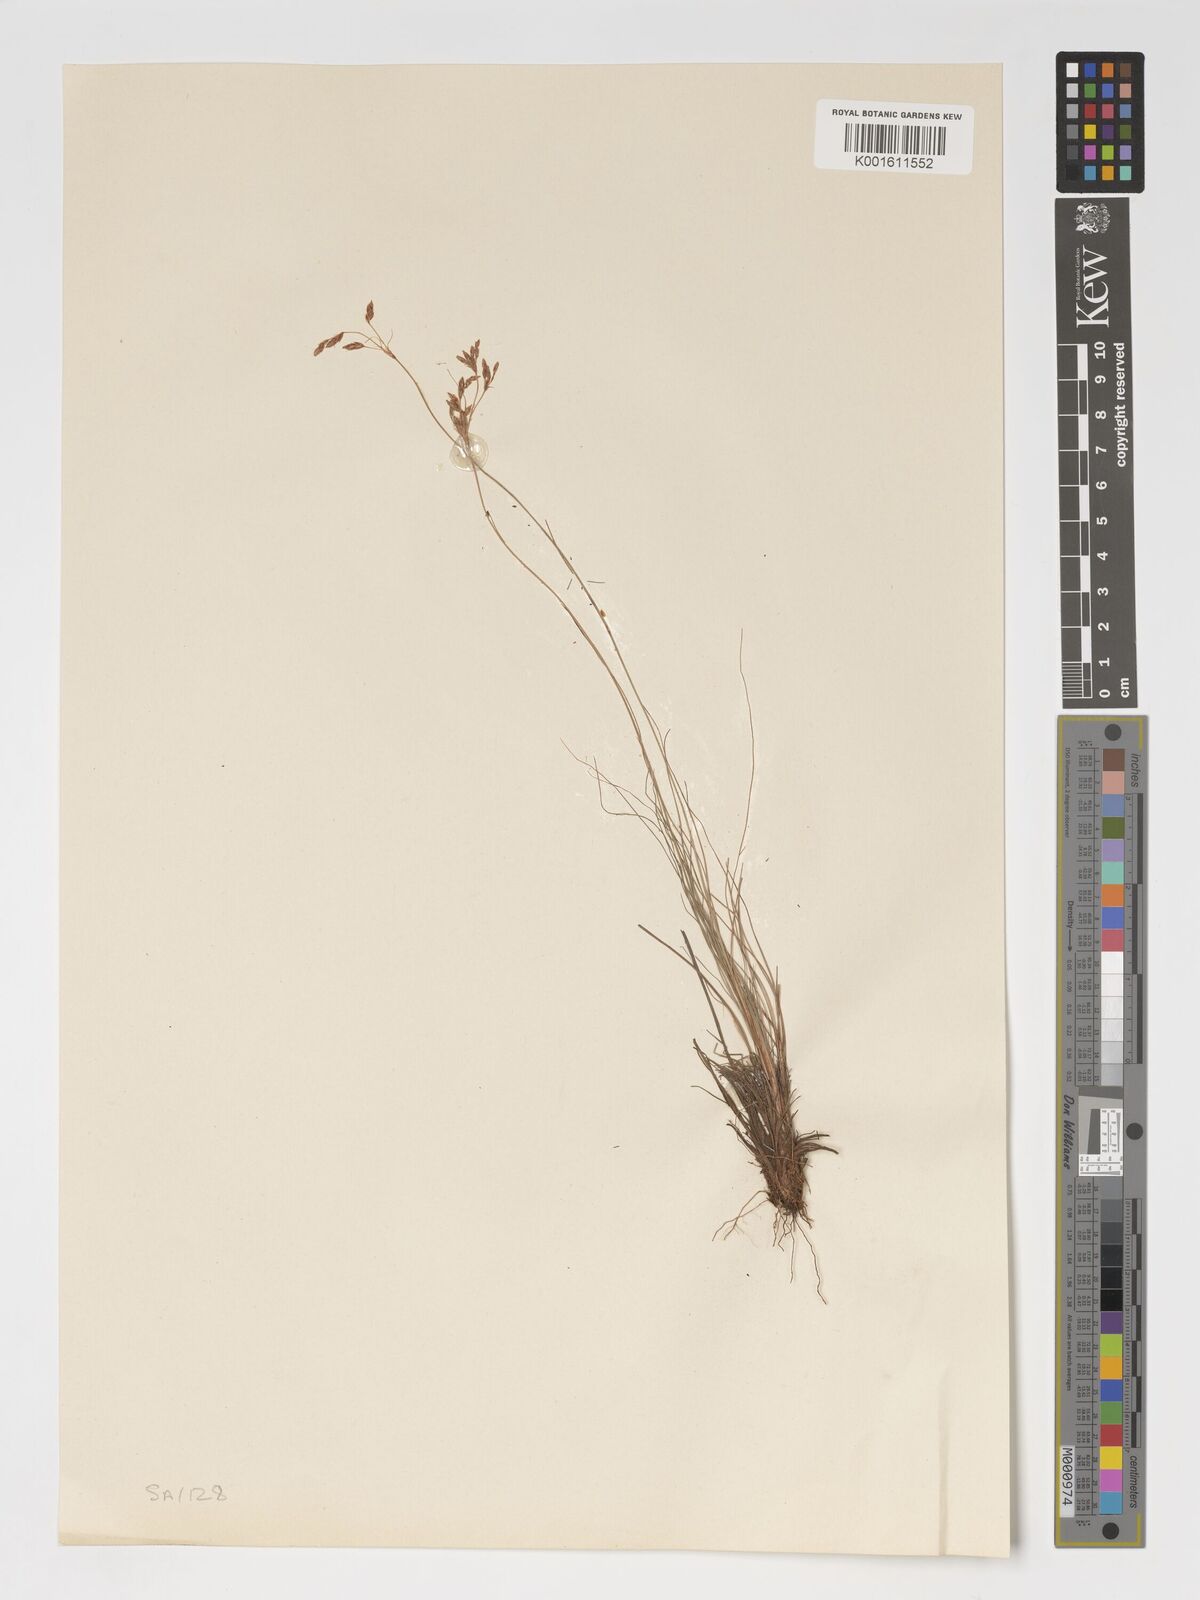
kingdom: Plantae
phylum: Tracheophyta
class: Liliopsida
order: Poales
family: Cyperaceae
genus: Bulbostylis
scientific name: Bulbostylis hispidula
